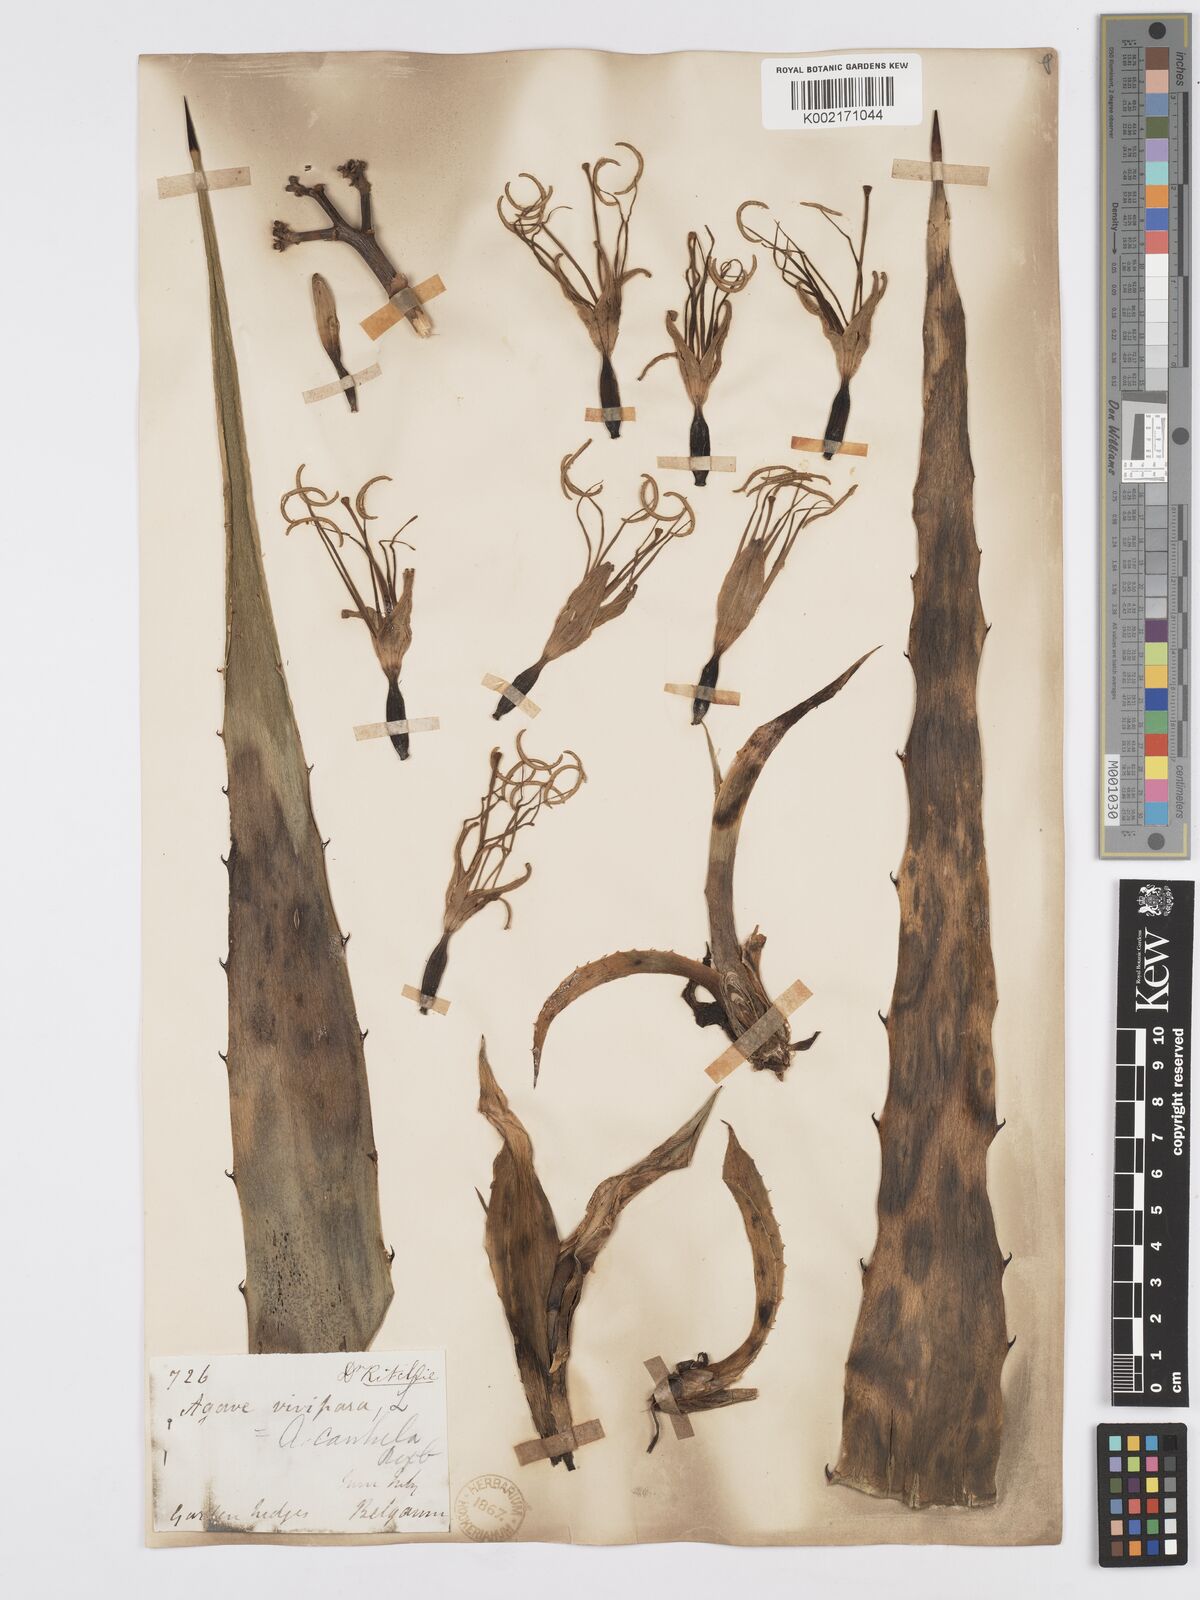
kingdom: Plantae
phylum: Tracheophyta
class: Liliopsida
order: Asparagales
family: Asparagaceae
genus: Agave
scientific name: Agave vivipara
